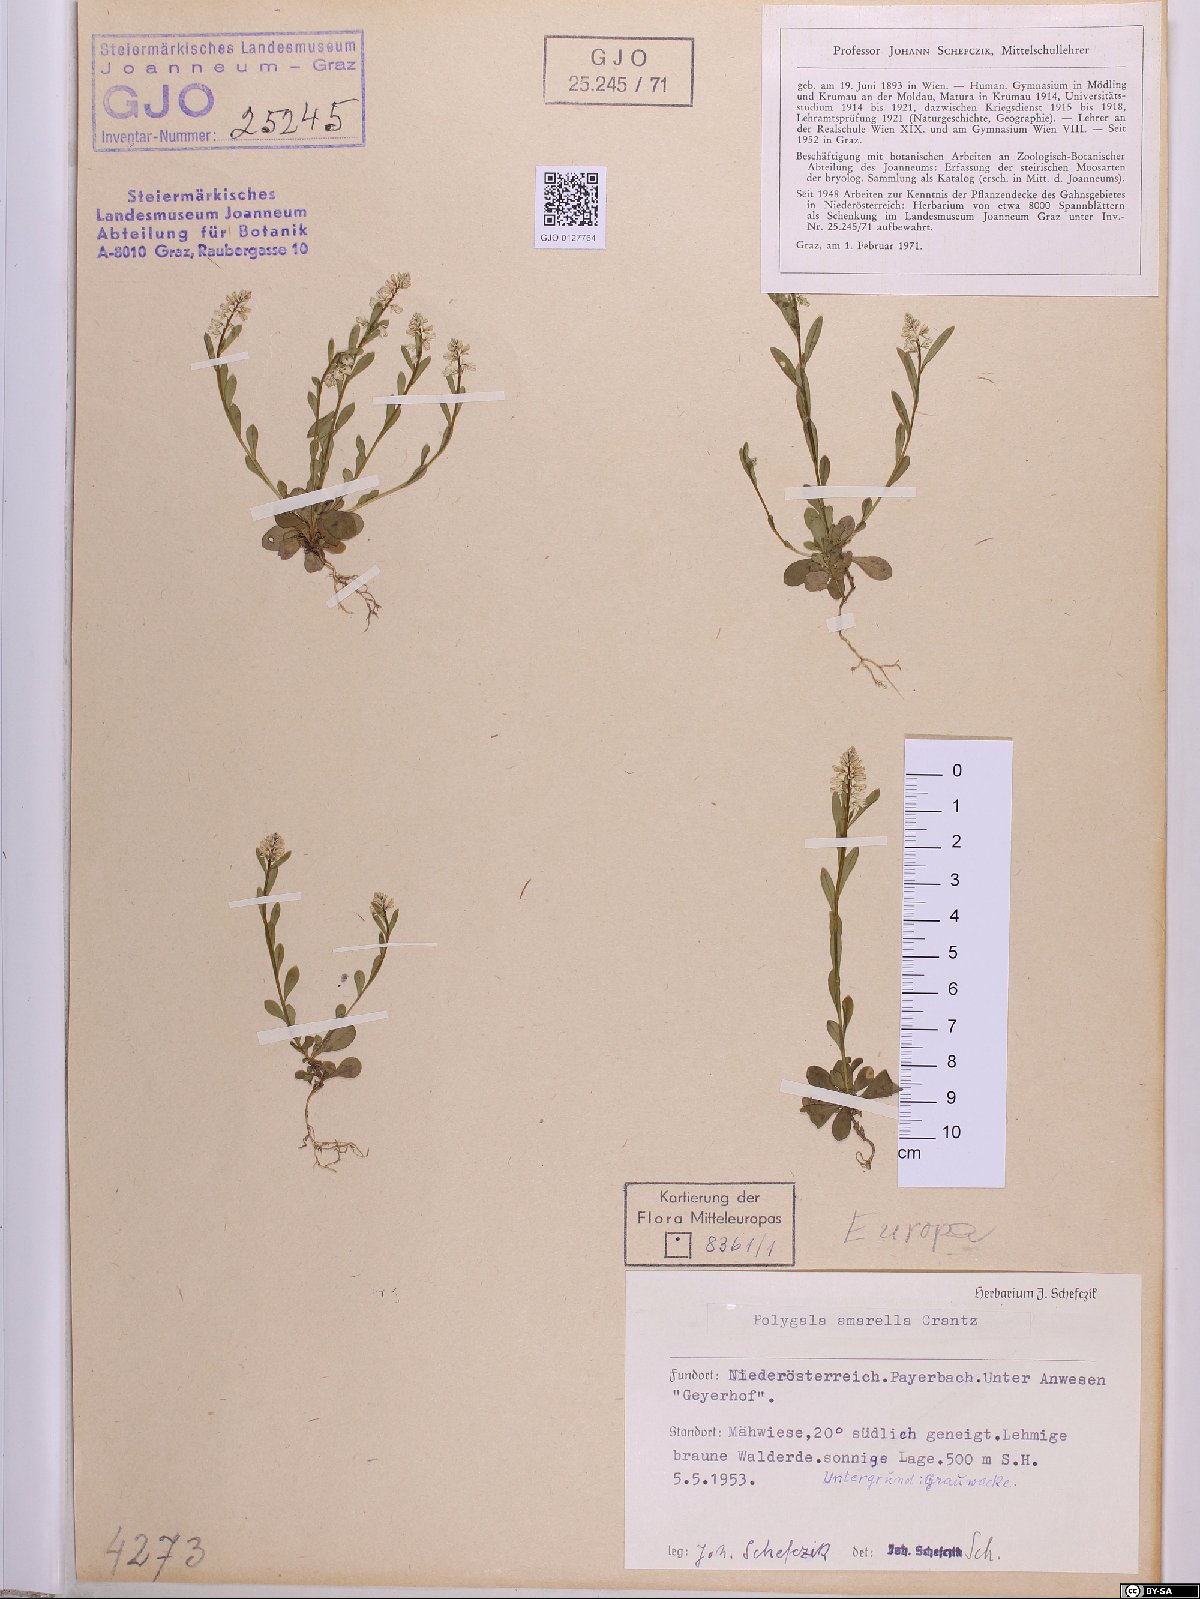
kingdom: Plantae
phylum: Tracheophyta
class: Magnoliopsida
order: Fabales
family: Polygalaceae
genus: Polygala
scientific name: Polygala amarella
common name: Dwarf milkwort
